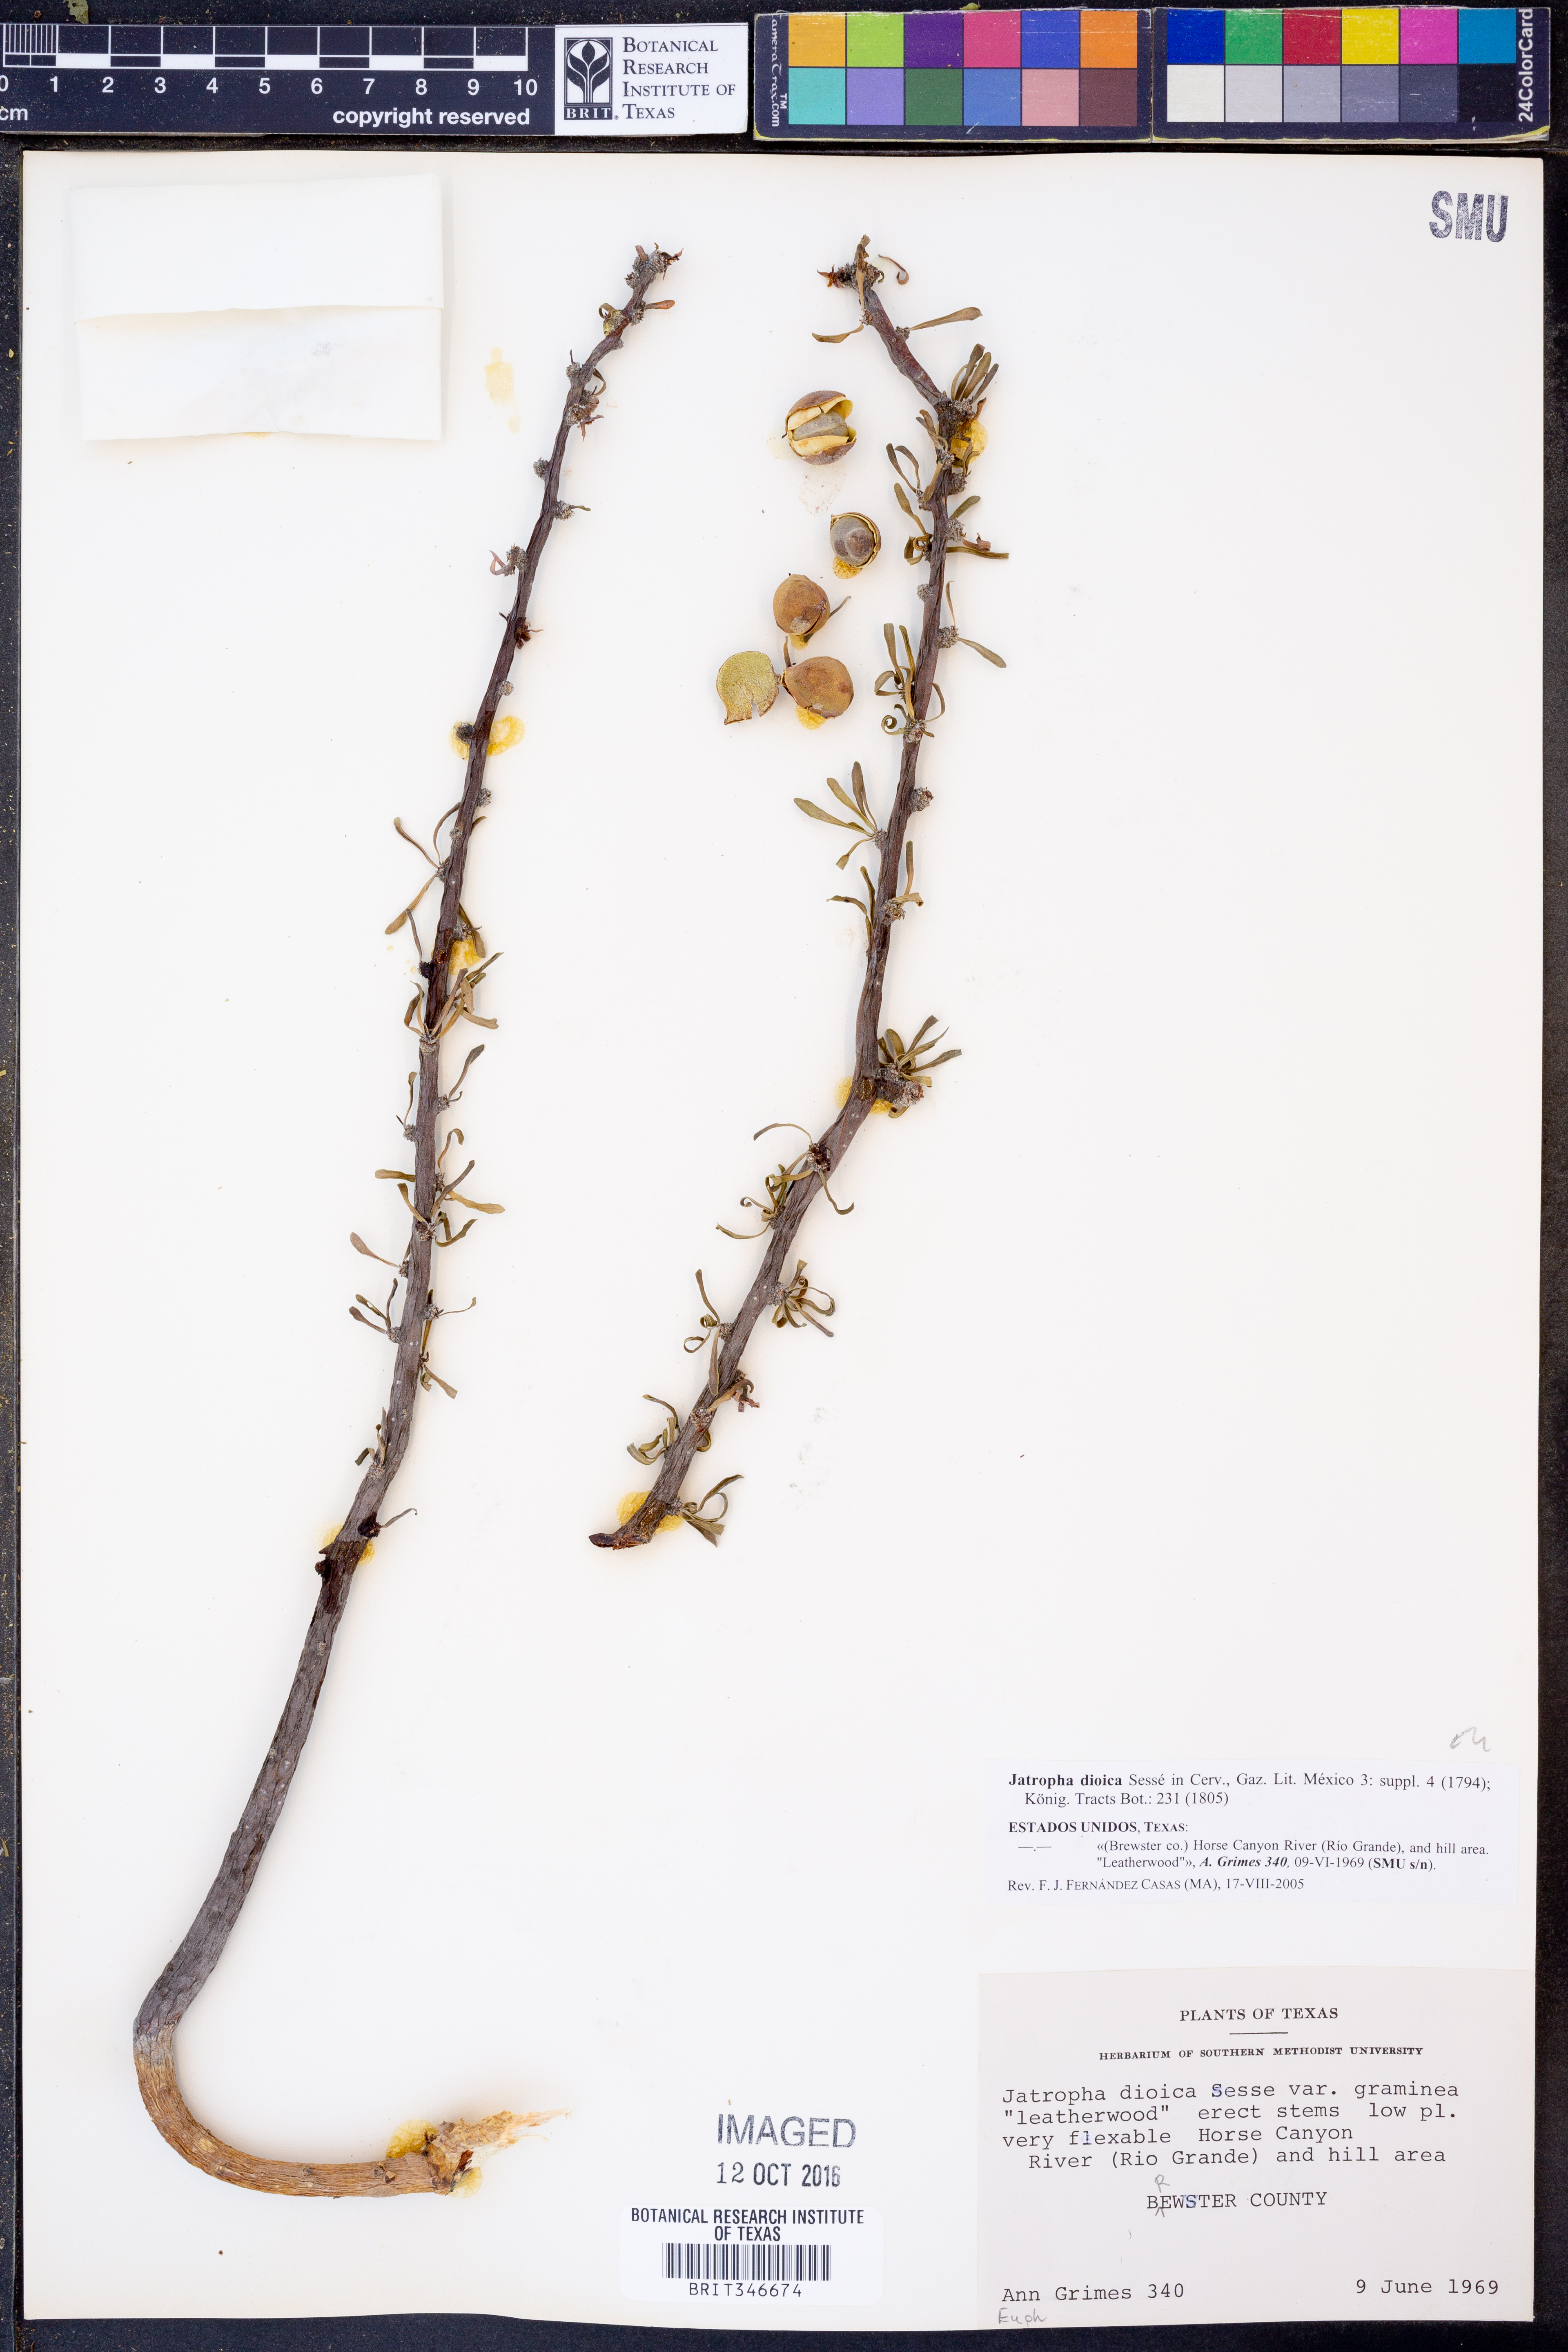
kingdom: Plantae
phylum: Tracheophyta
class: Magnoliopsida
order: Malpighiales
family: Euphorbiaceae
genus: Jatropha
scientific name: Jatropha dioica
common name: Leatherstem
